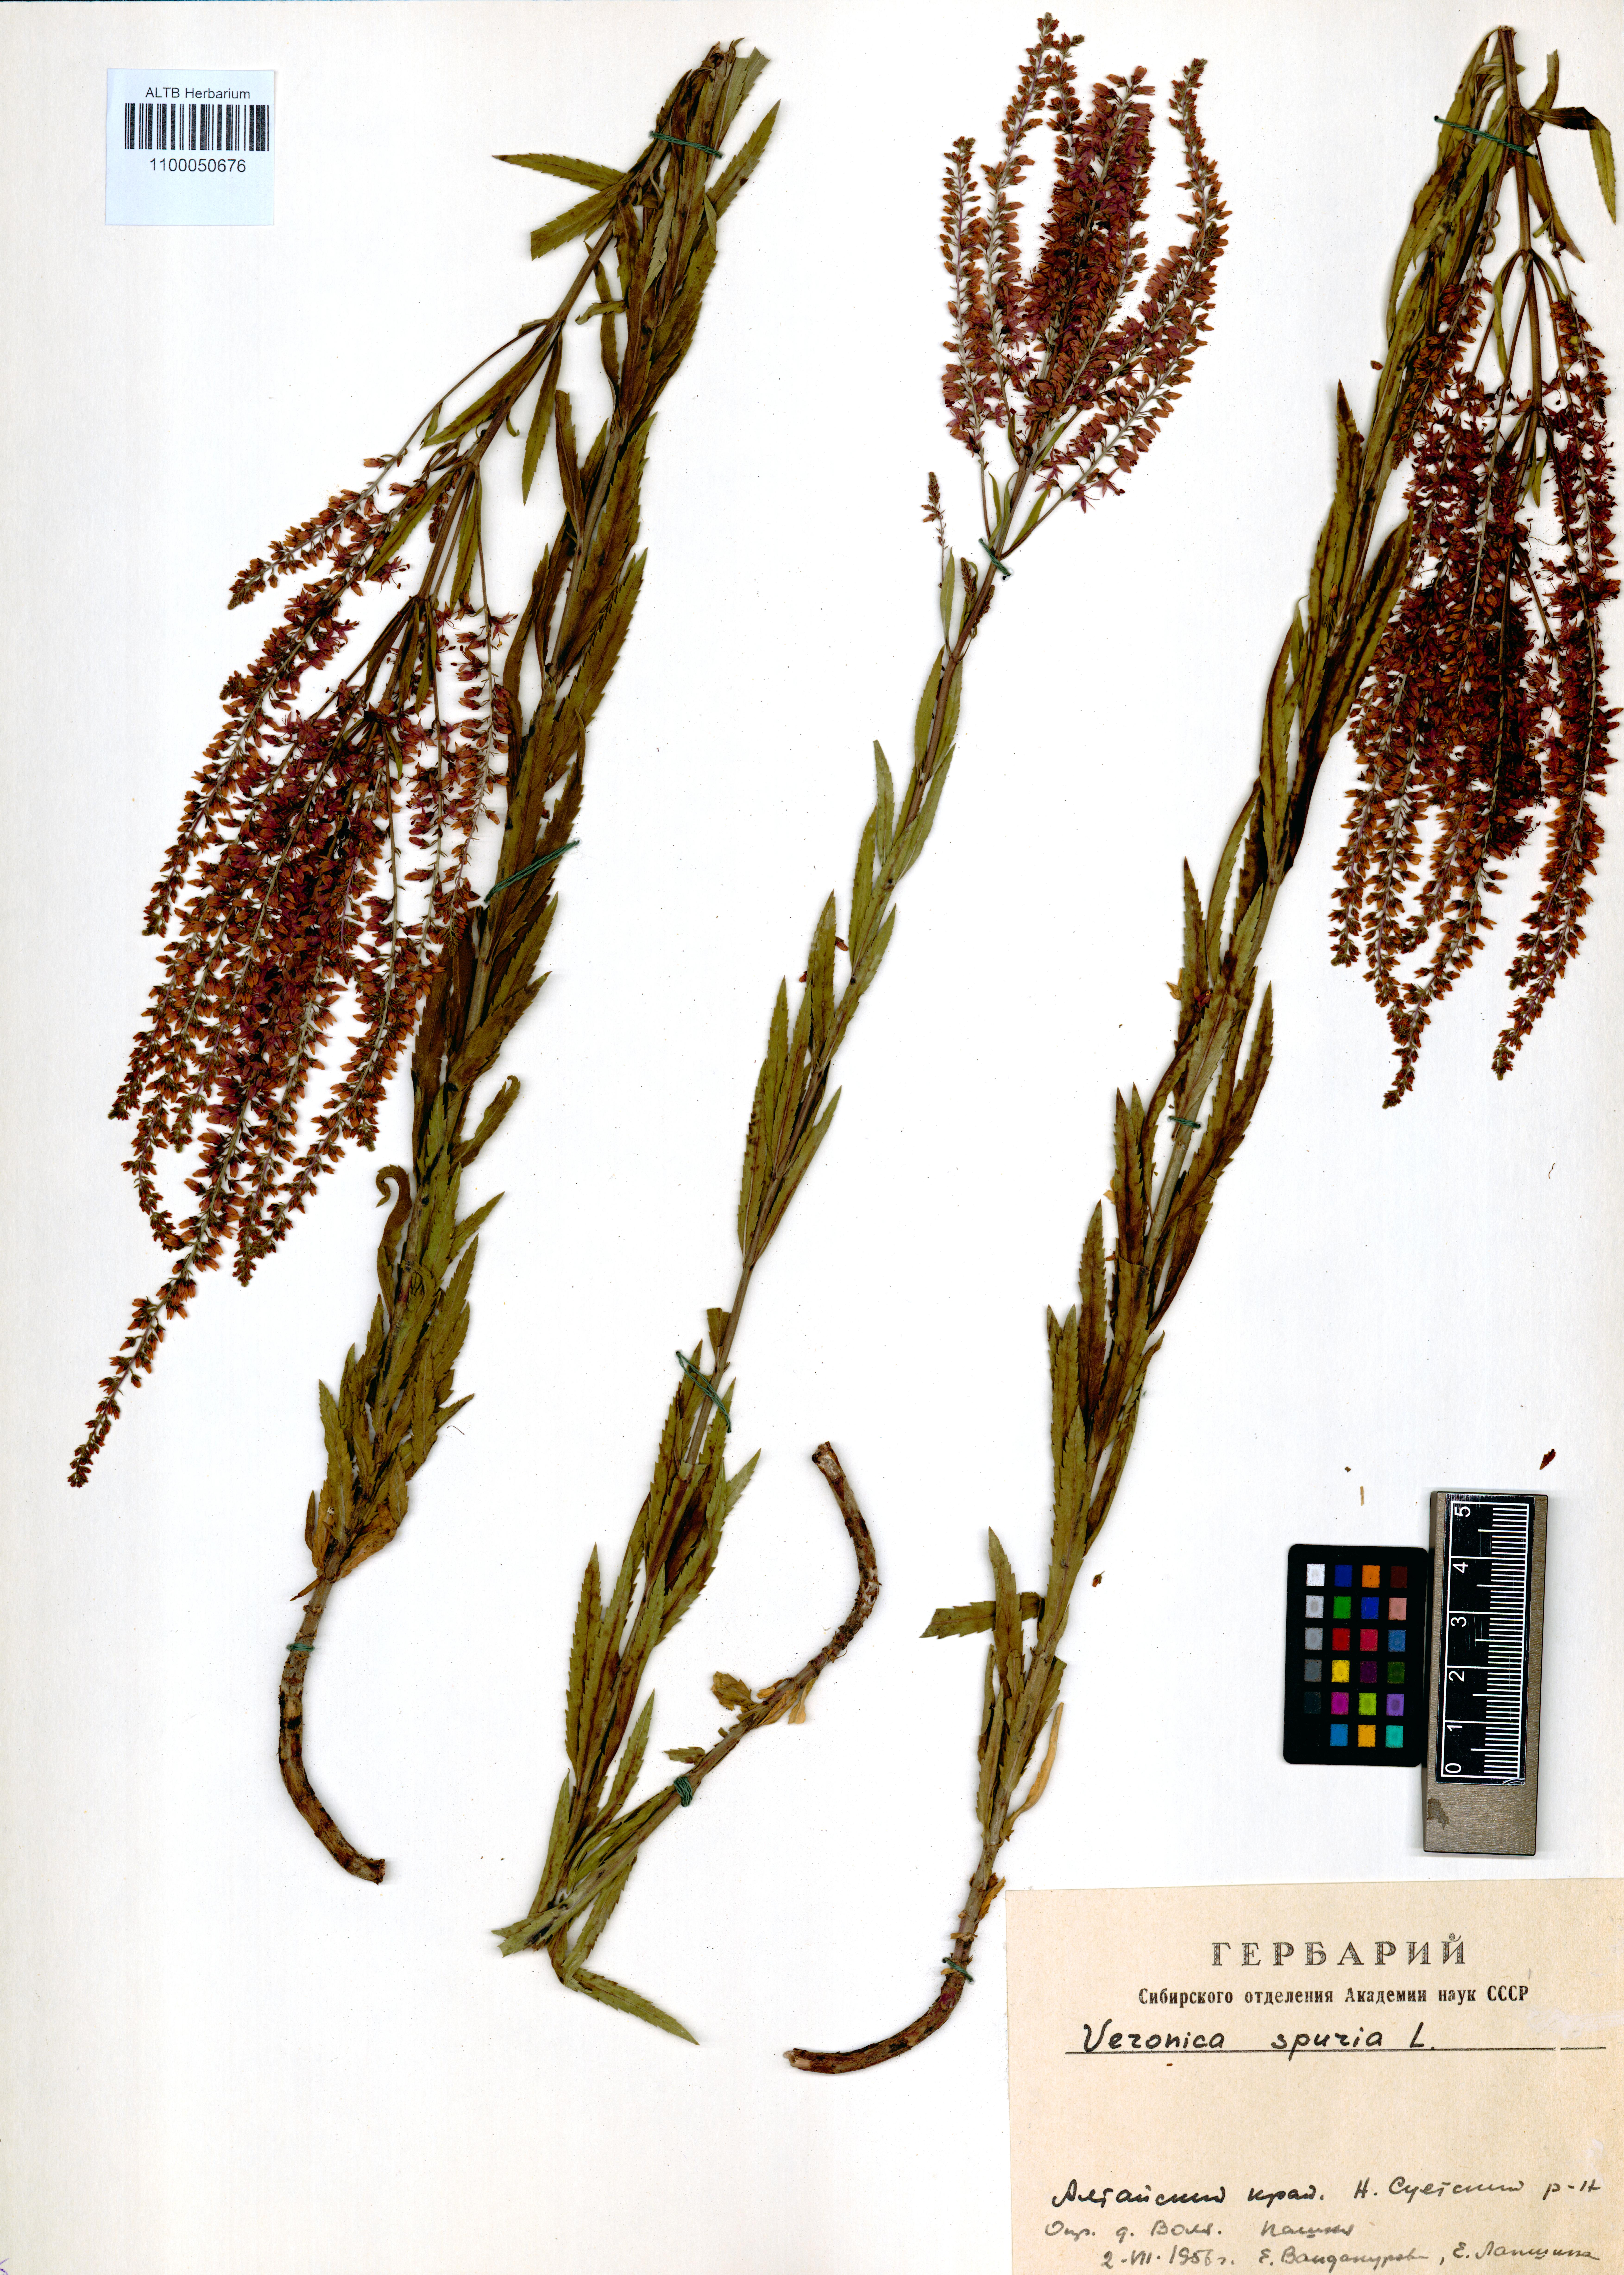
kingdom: Plantae
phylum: Tracheophyta
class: Magnoliopsida
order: Lamiales
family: Plantaginaceae
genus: Veronica
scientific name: Veronica spuria
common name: Bastard speedwell
